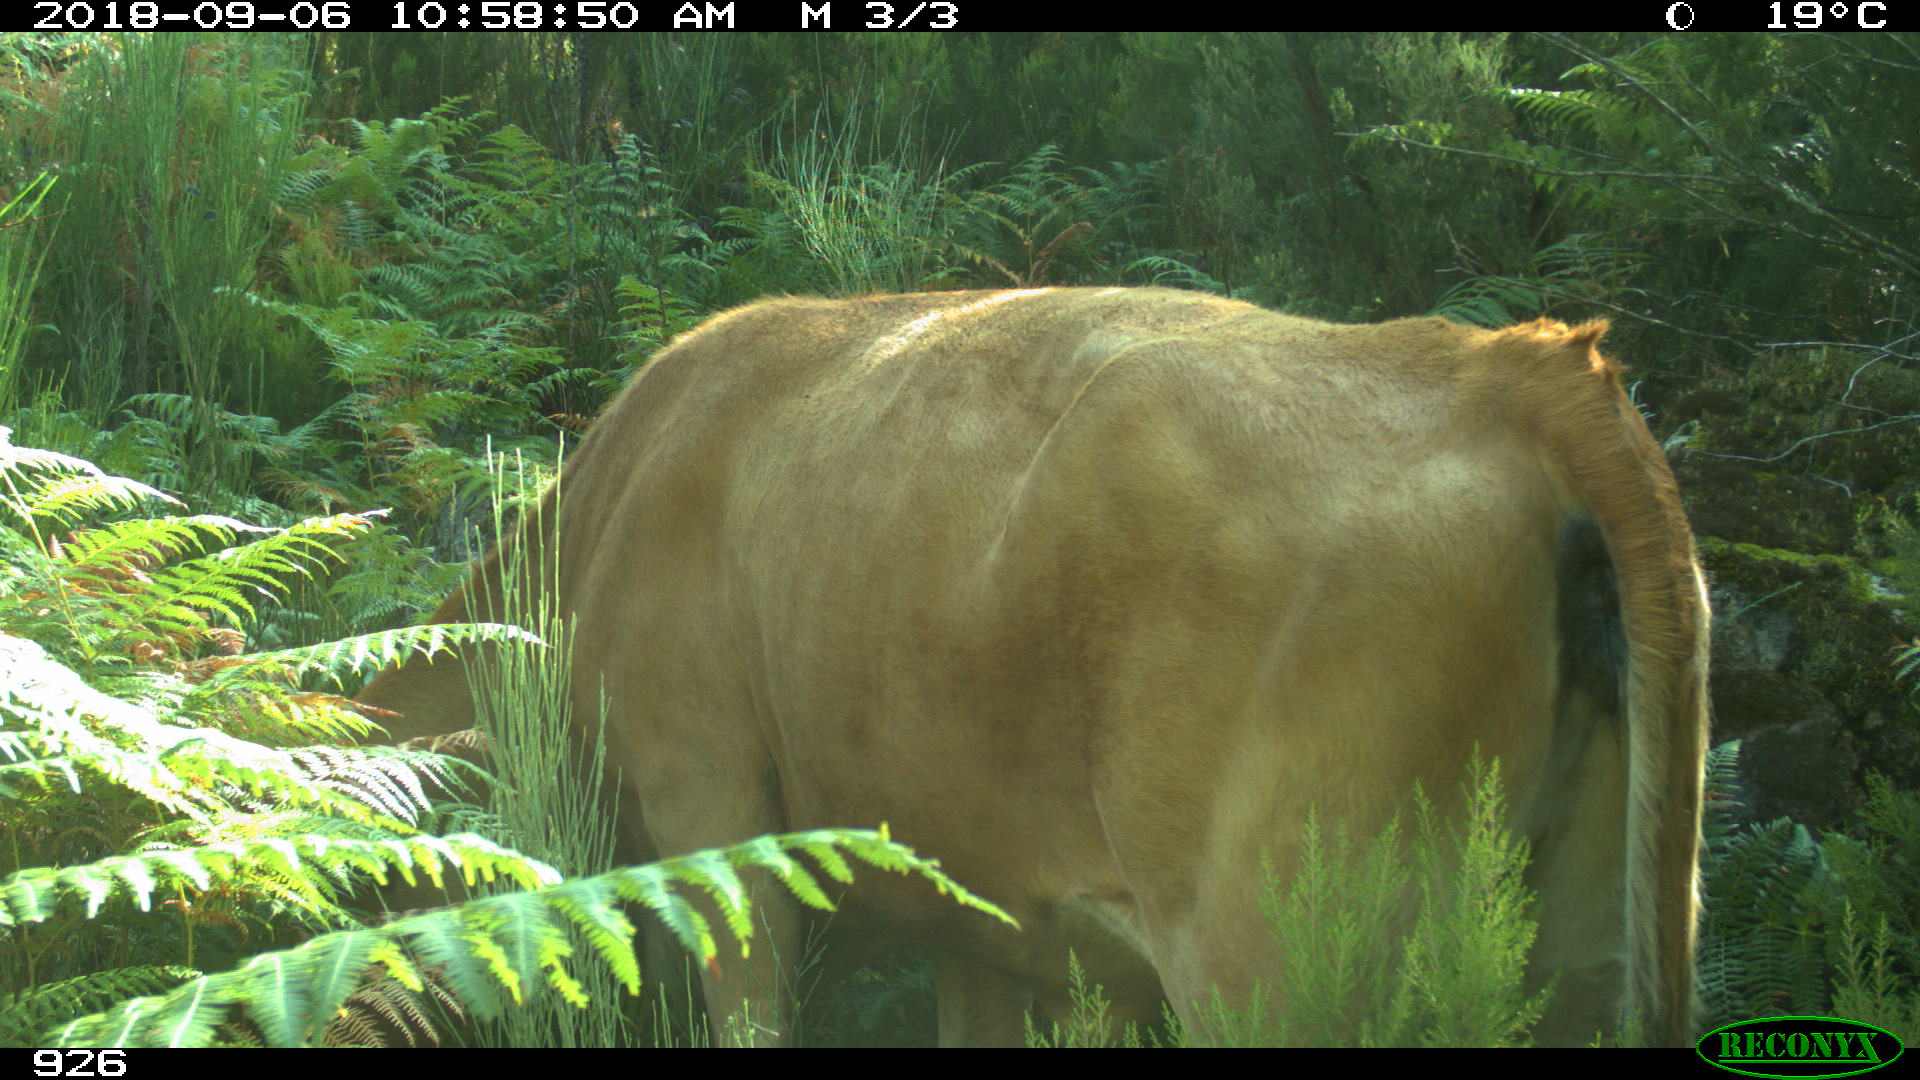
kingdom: Animalia
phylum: Chordata
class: Mammalia
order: Artiodactyla
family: Bovidae
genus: Bos
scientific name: Bos taurus
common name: Domesticated cattle
